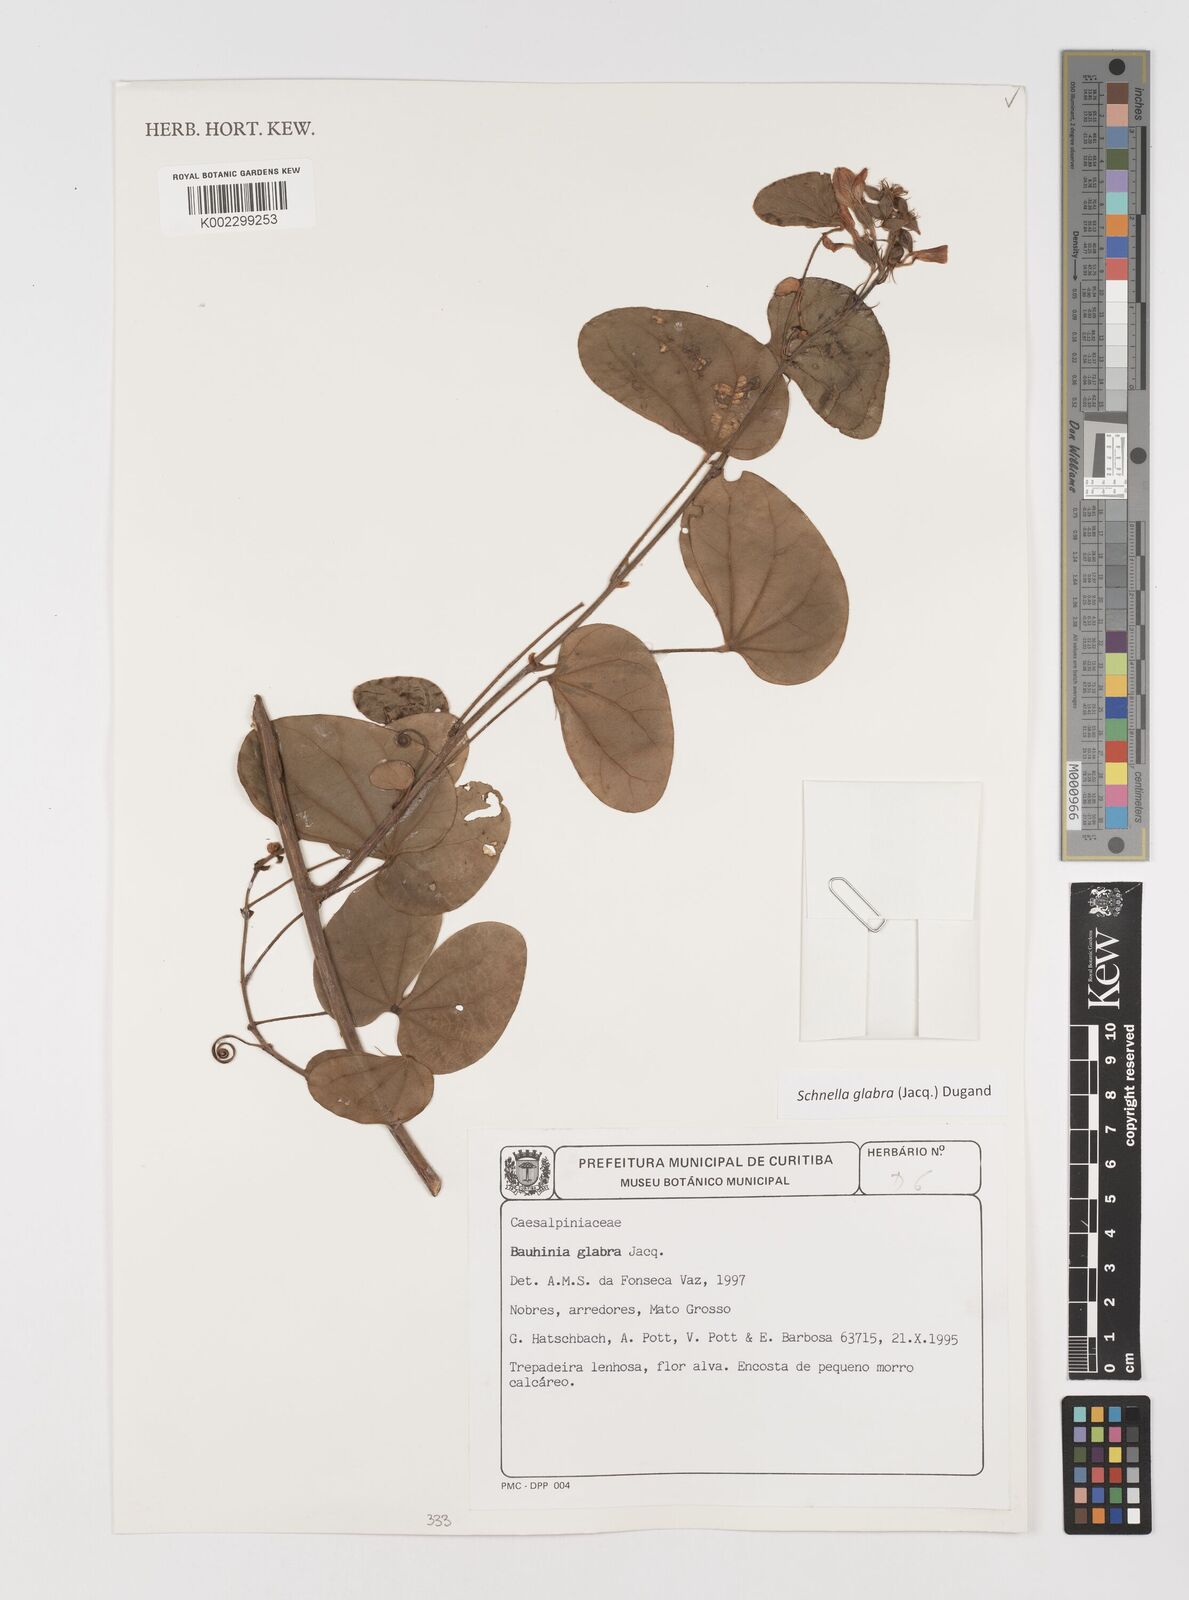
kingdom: Plantae
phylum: Tracheophyta
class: Magnoliopsida
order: Fabales
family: Fabaceae
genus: Schnella
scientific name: Schnella glabra
